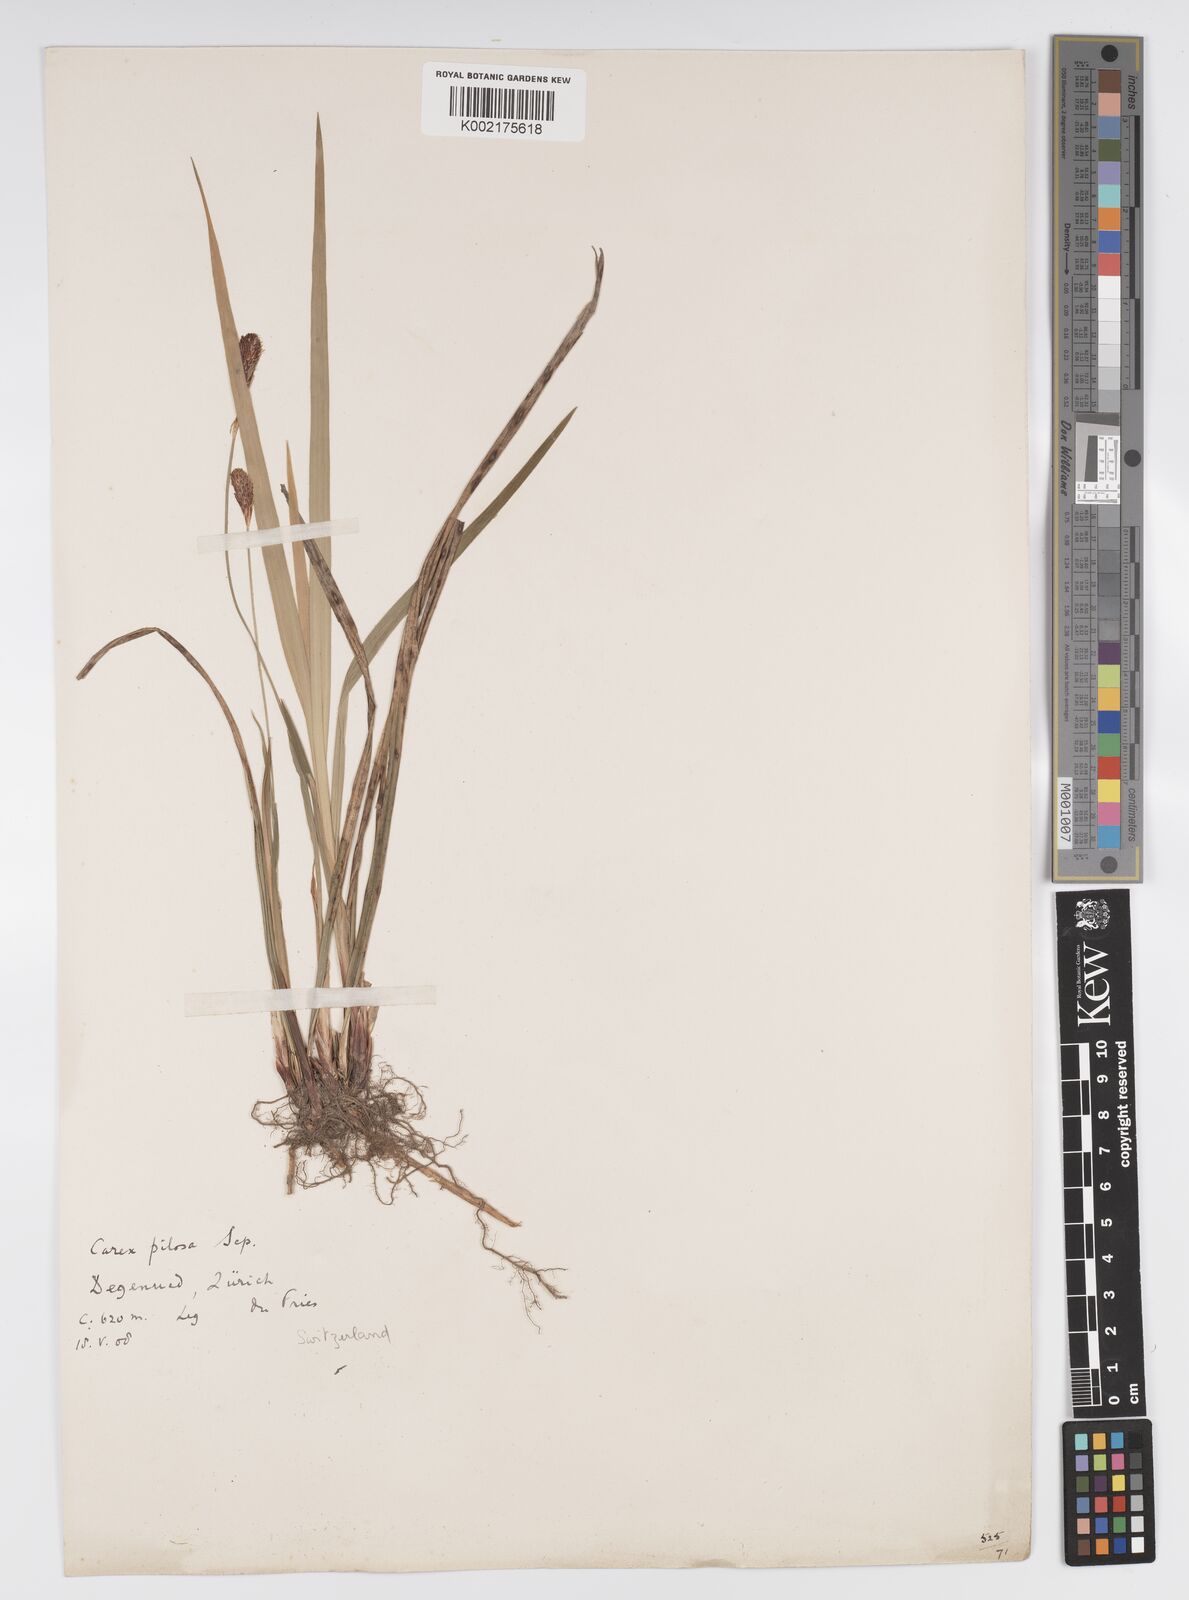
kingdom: Plantae
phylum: Tracheophyta
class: Liliopsida
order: Poales
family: Cyperaceae
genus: Carex
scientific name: Carex pilosa
